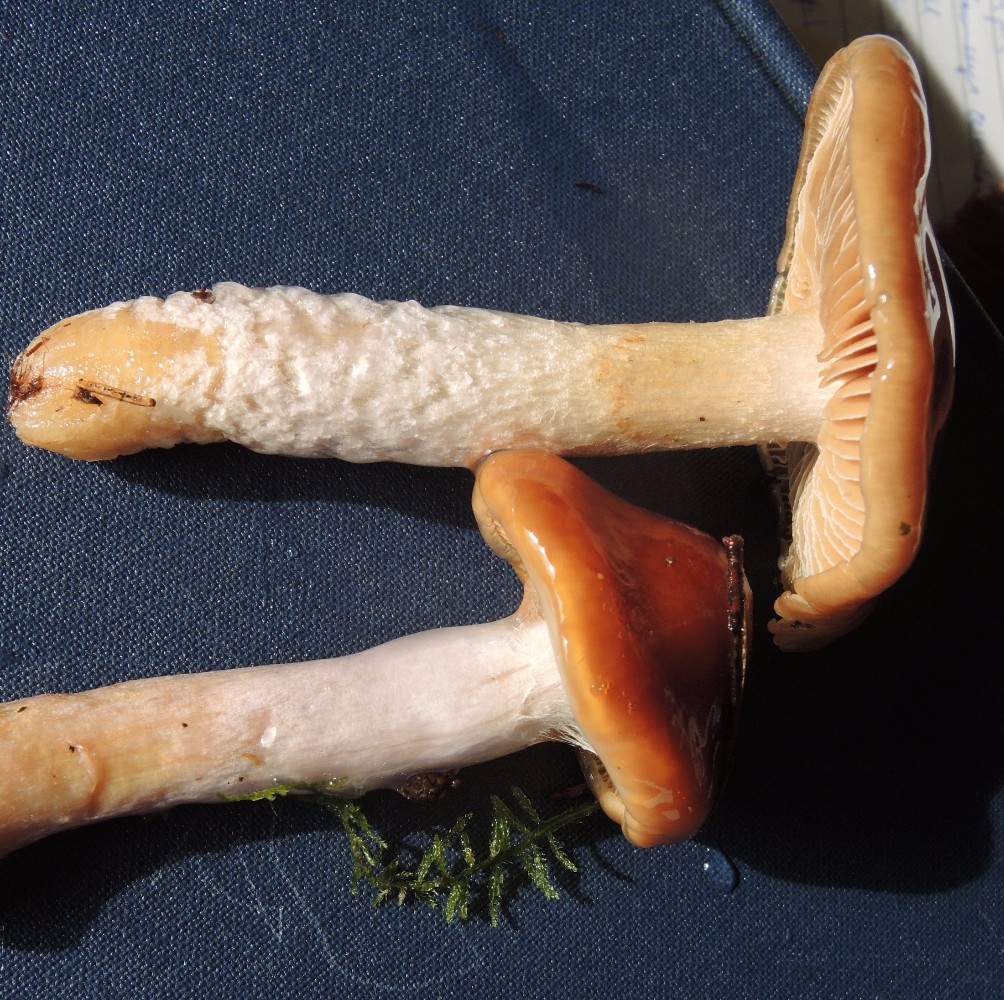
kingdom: Fungi
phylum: Basidiomycota
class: Agaricomycetes
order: Agaricales
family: Cortinariaceae
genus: Cortinarius
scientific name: Cortinarius stillatitius
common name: honningduftende slørhat
